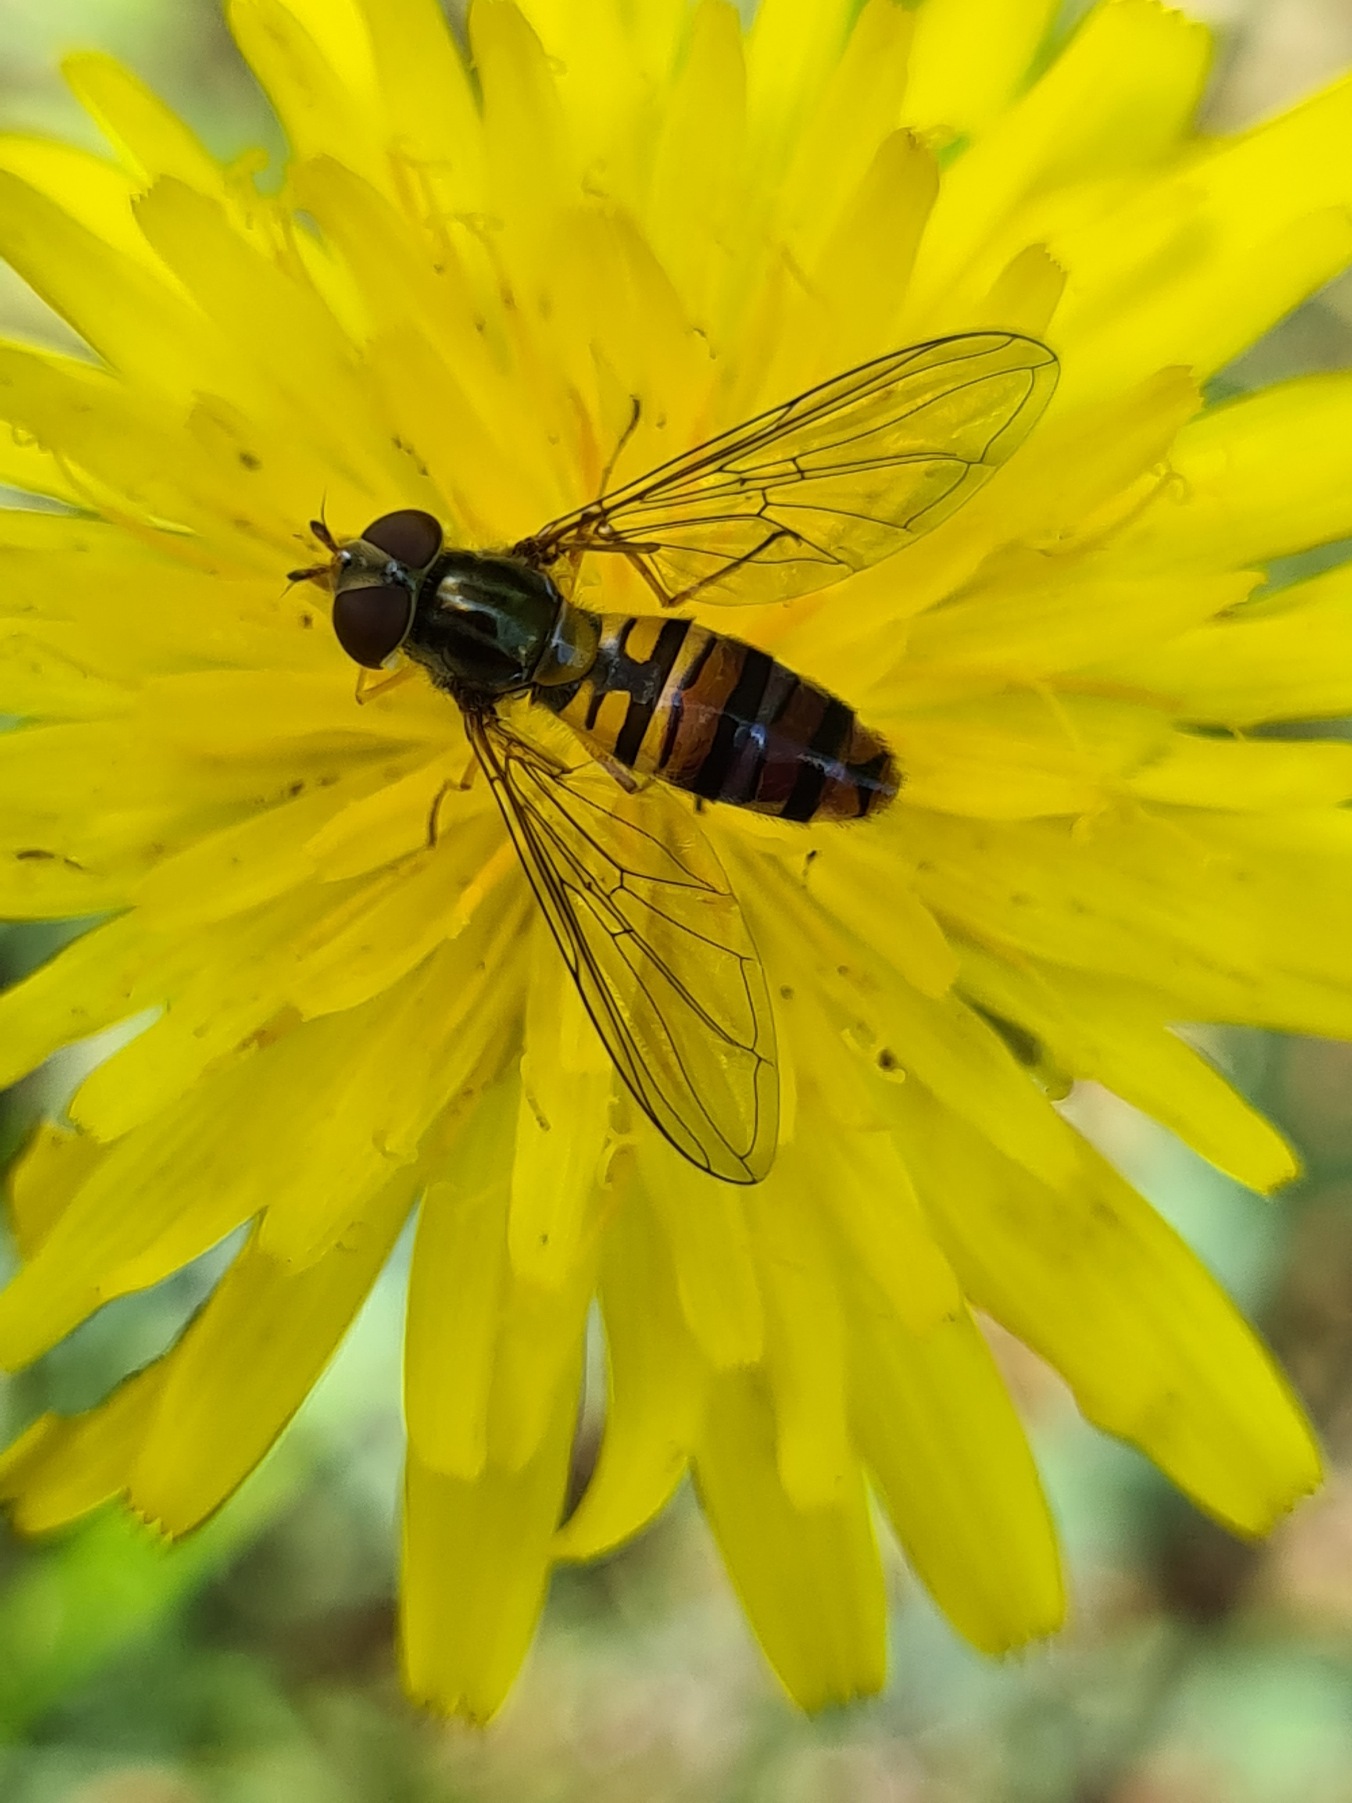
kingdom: Animalia
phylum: Arthropoda
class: Insecta
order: Diptera
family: Syrphidae
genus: Episyrphus
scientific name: Episyrphus balteatus
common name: Dobbeltbåndet svirreflue
